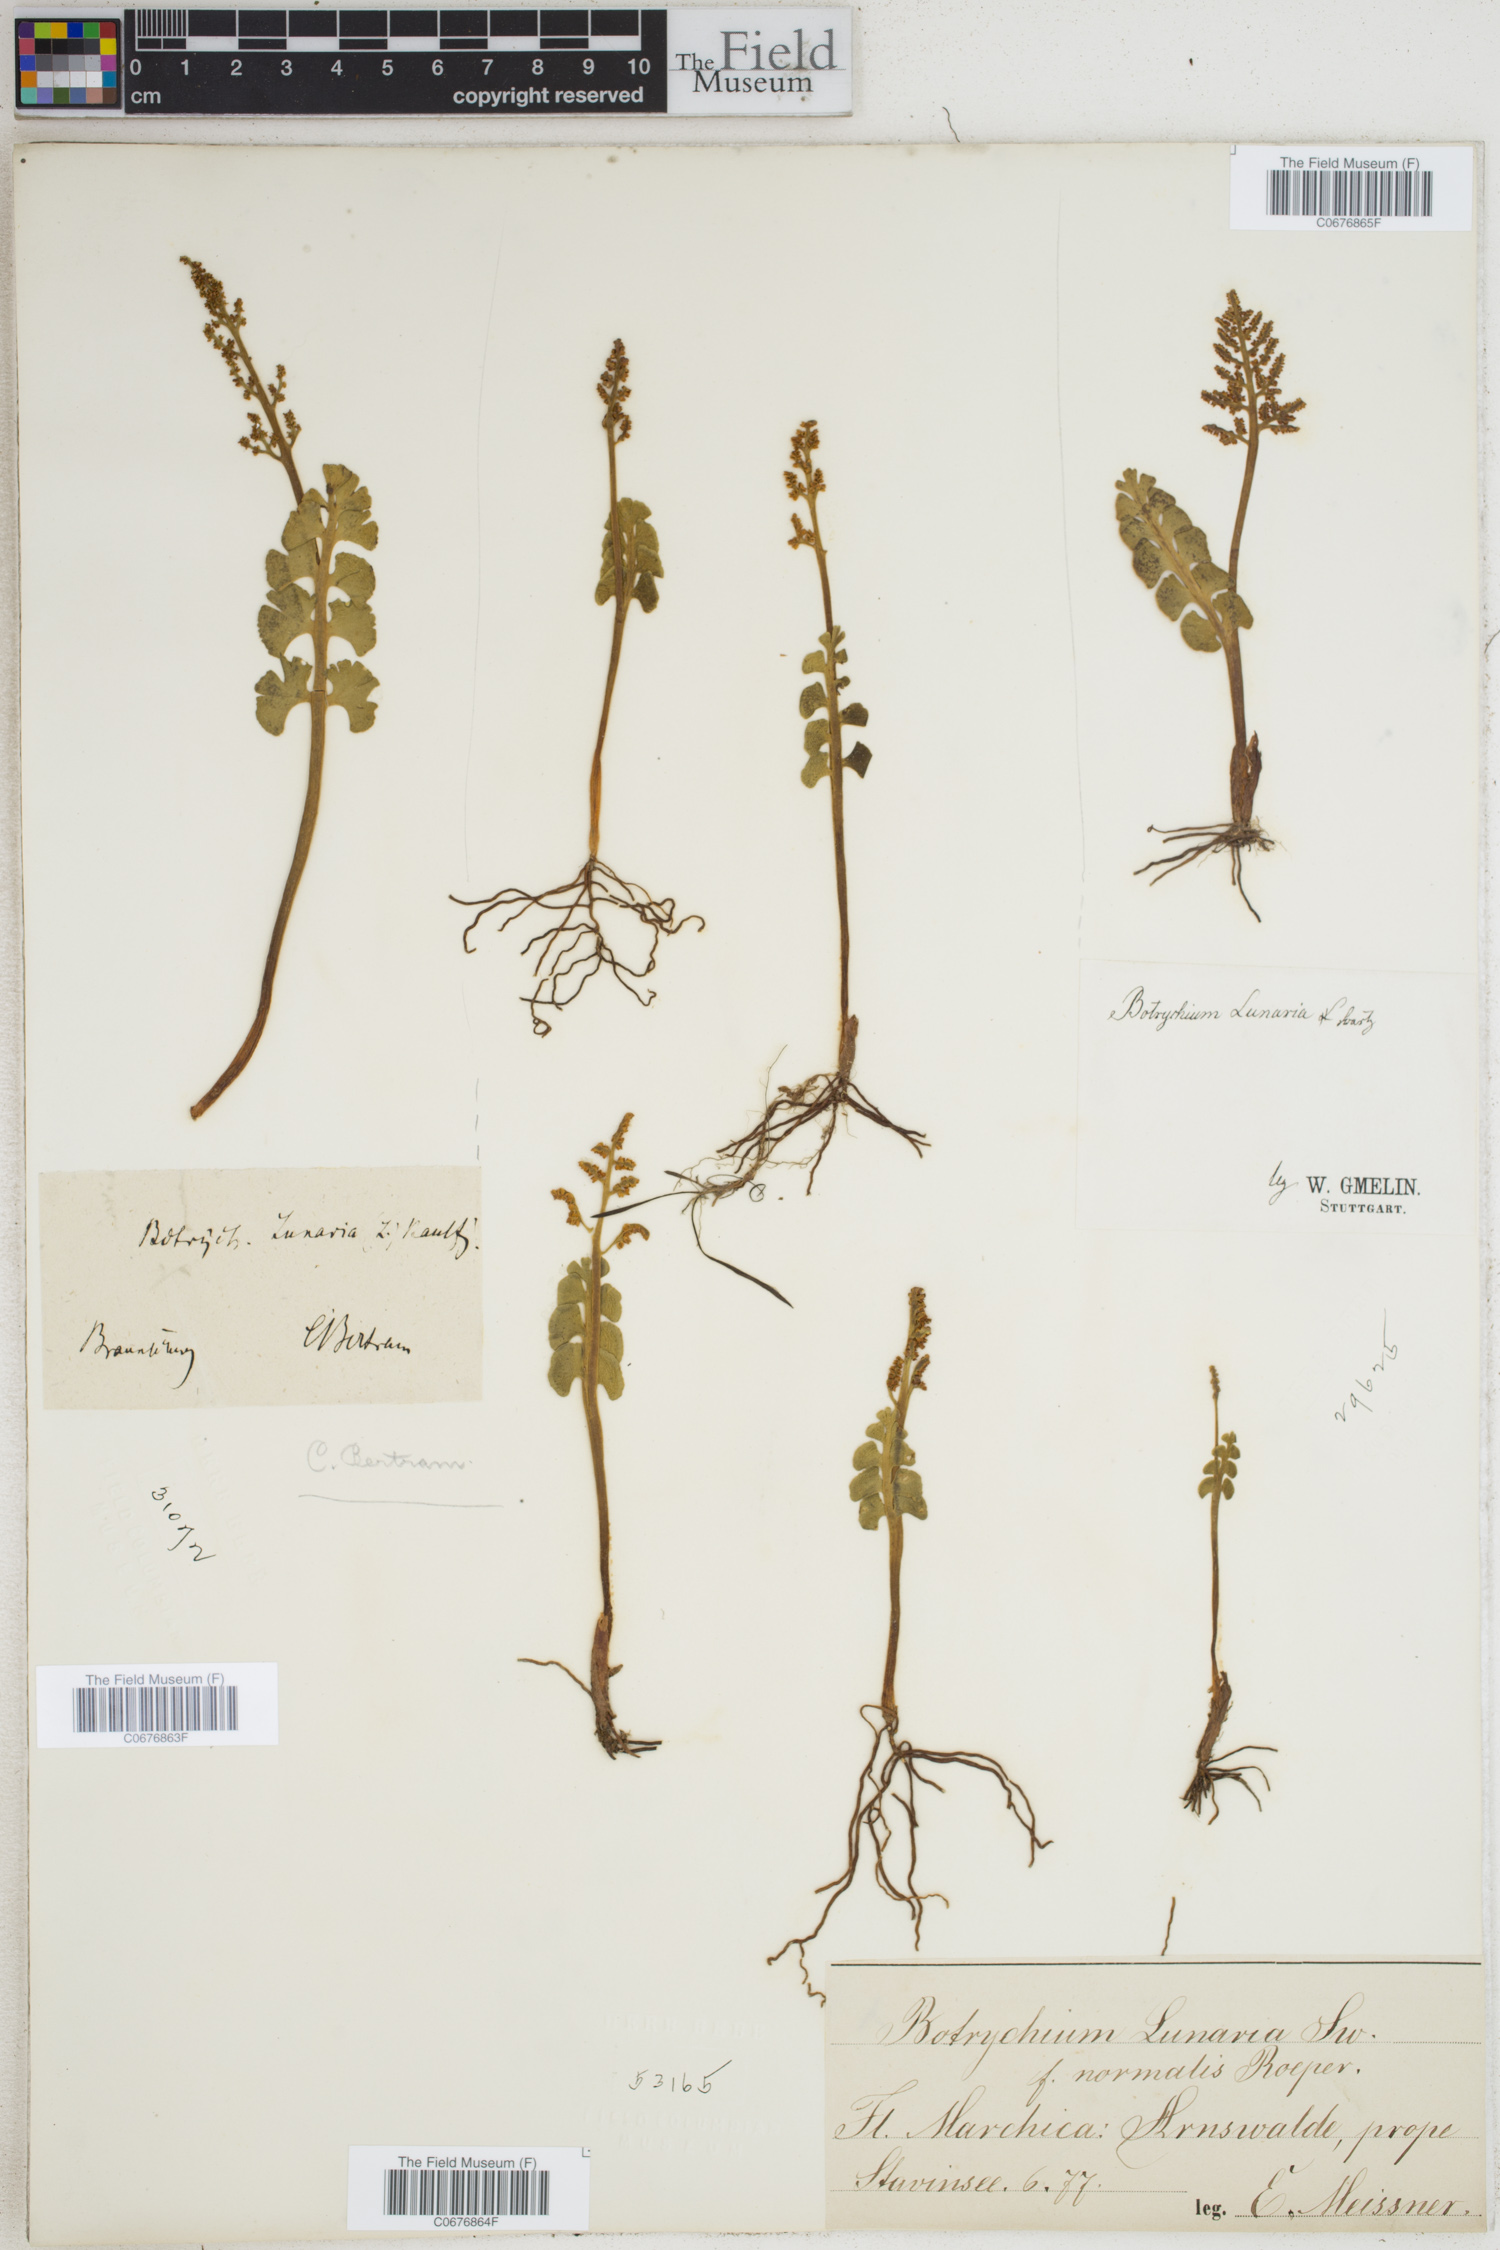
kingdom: Plantae
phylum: Tracheophyta
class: Polypodiopsida
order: Ophioglossales
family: Ophioglossaceae
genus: Botrychium
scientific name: Botrychium lunaria
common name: Moonwort
